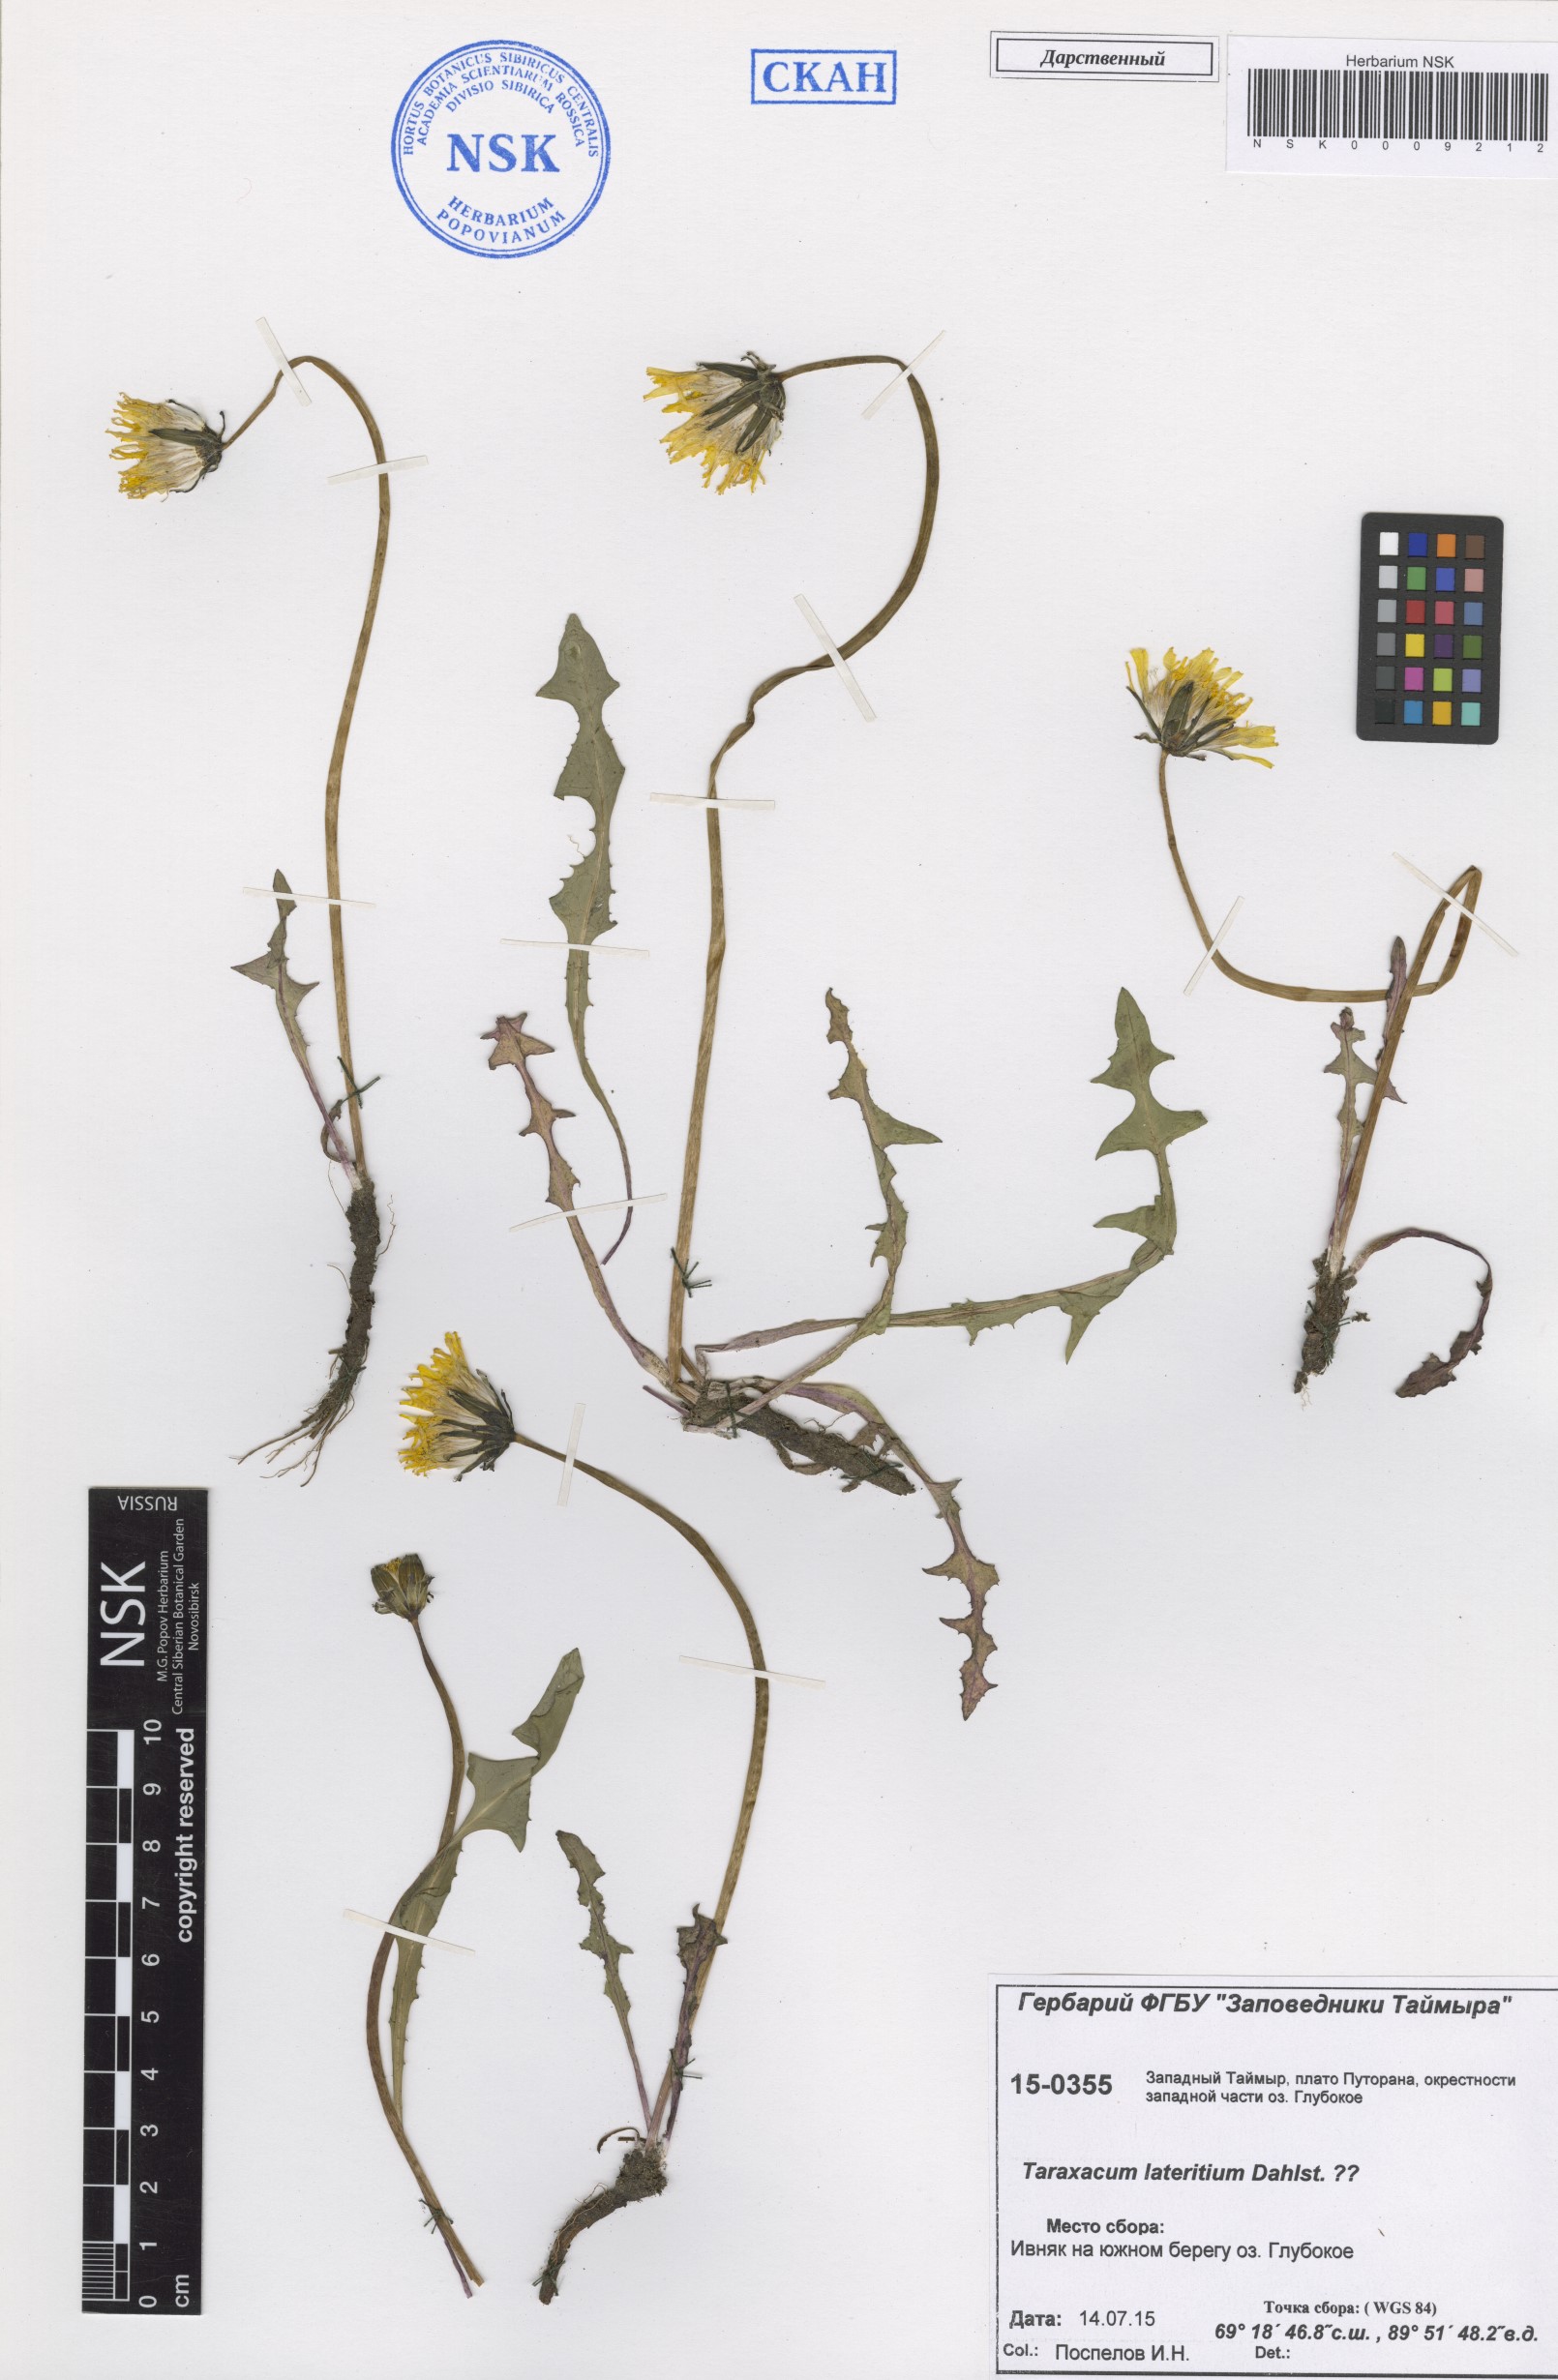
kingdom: Plantae
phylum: Tracheophyta
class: Magnoliopsida
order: Asterales
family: Asteraceae
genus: Taraxacum
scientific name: Taraxacum ceratophorum
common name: Horn-bearing dandelion
